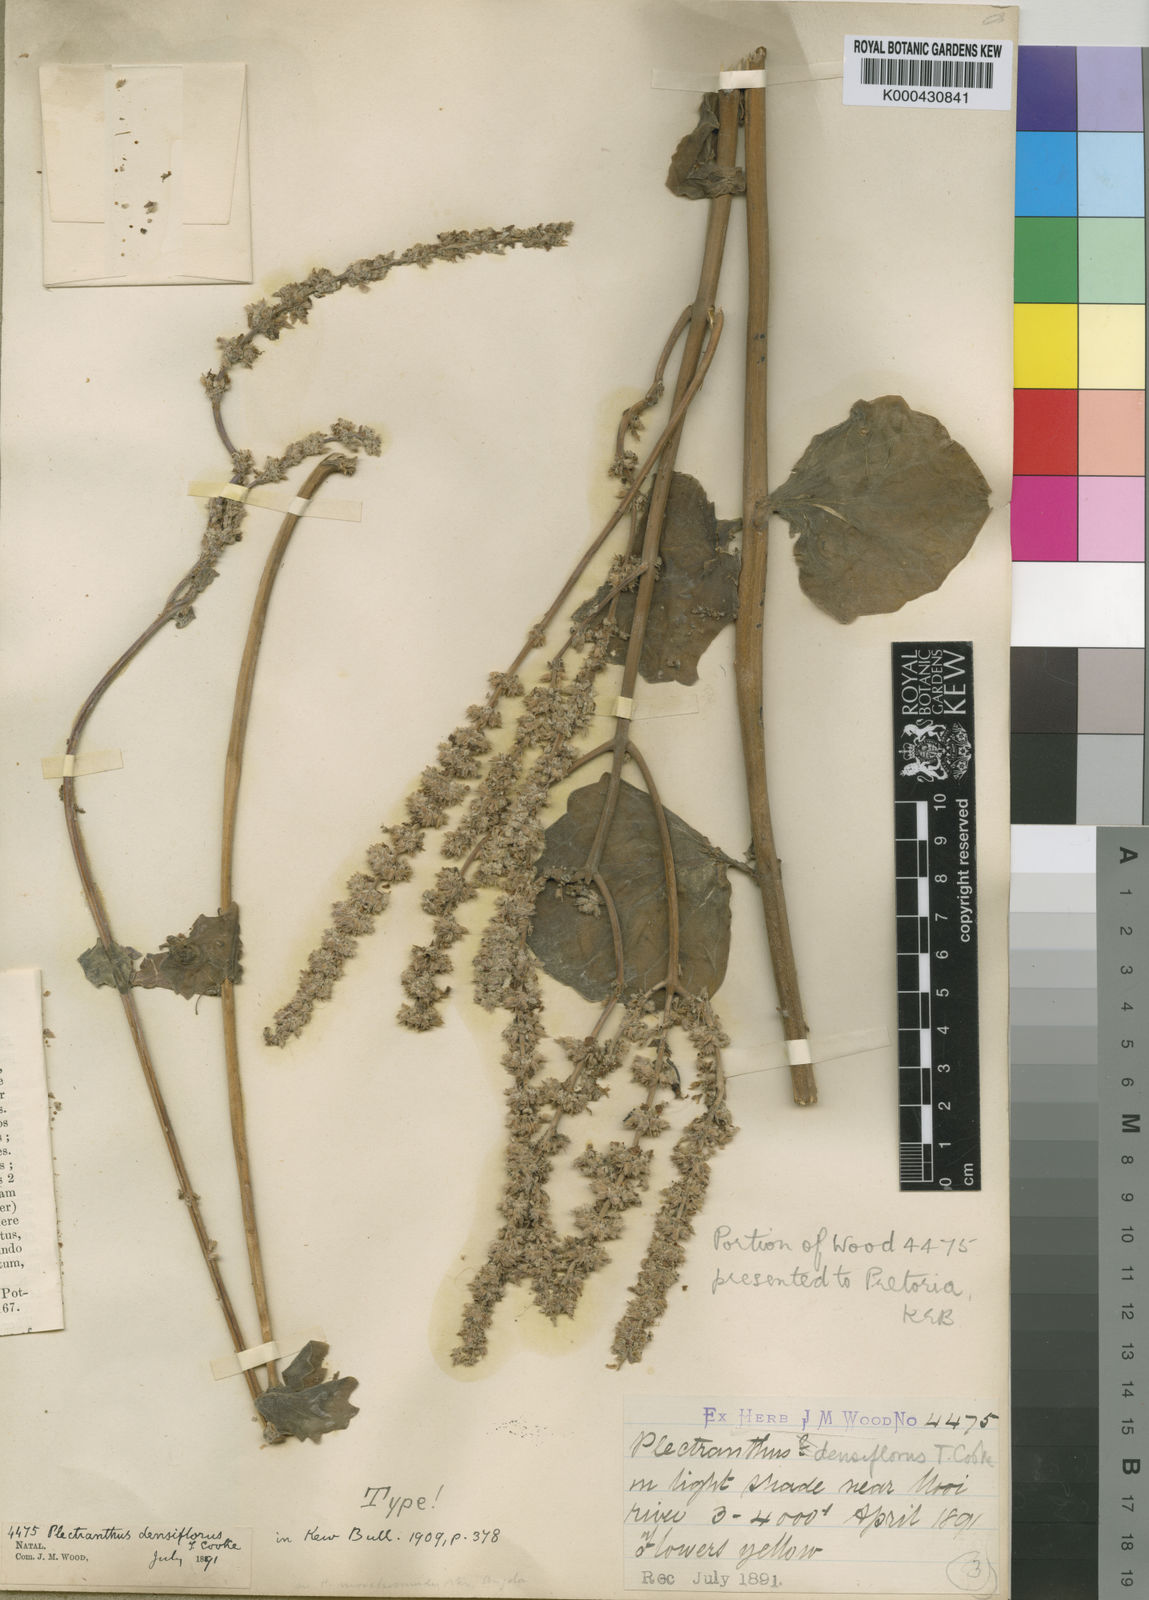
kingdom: Plantae
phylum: Tracheophyta
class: Magnoliopsida
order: Lamiales
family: Lamiaceae
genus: Coleus
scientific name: Coleus cylindraceus
